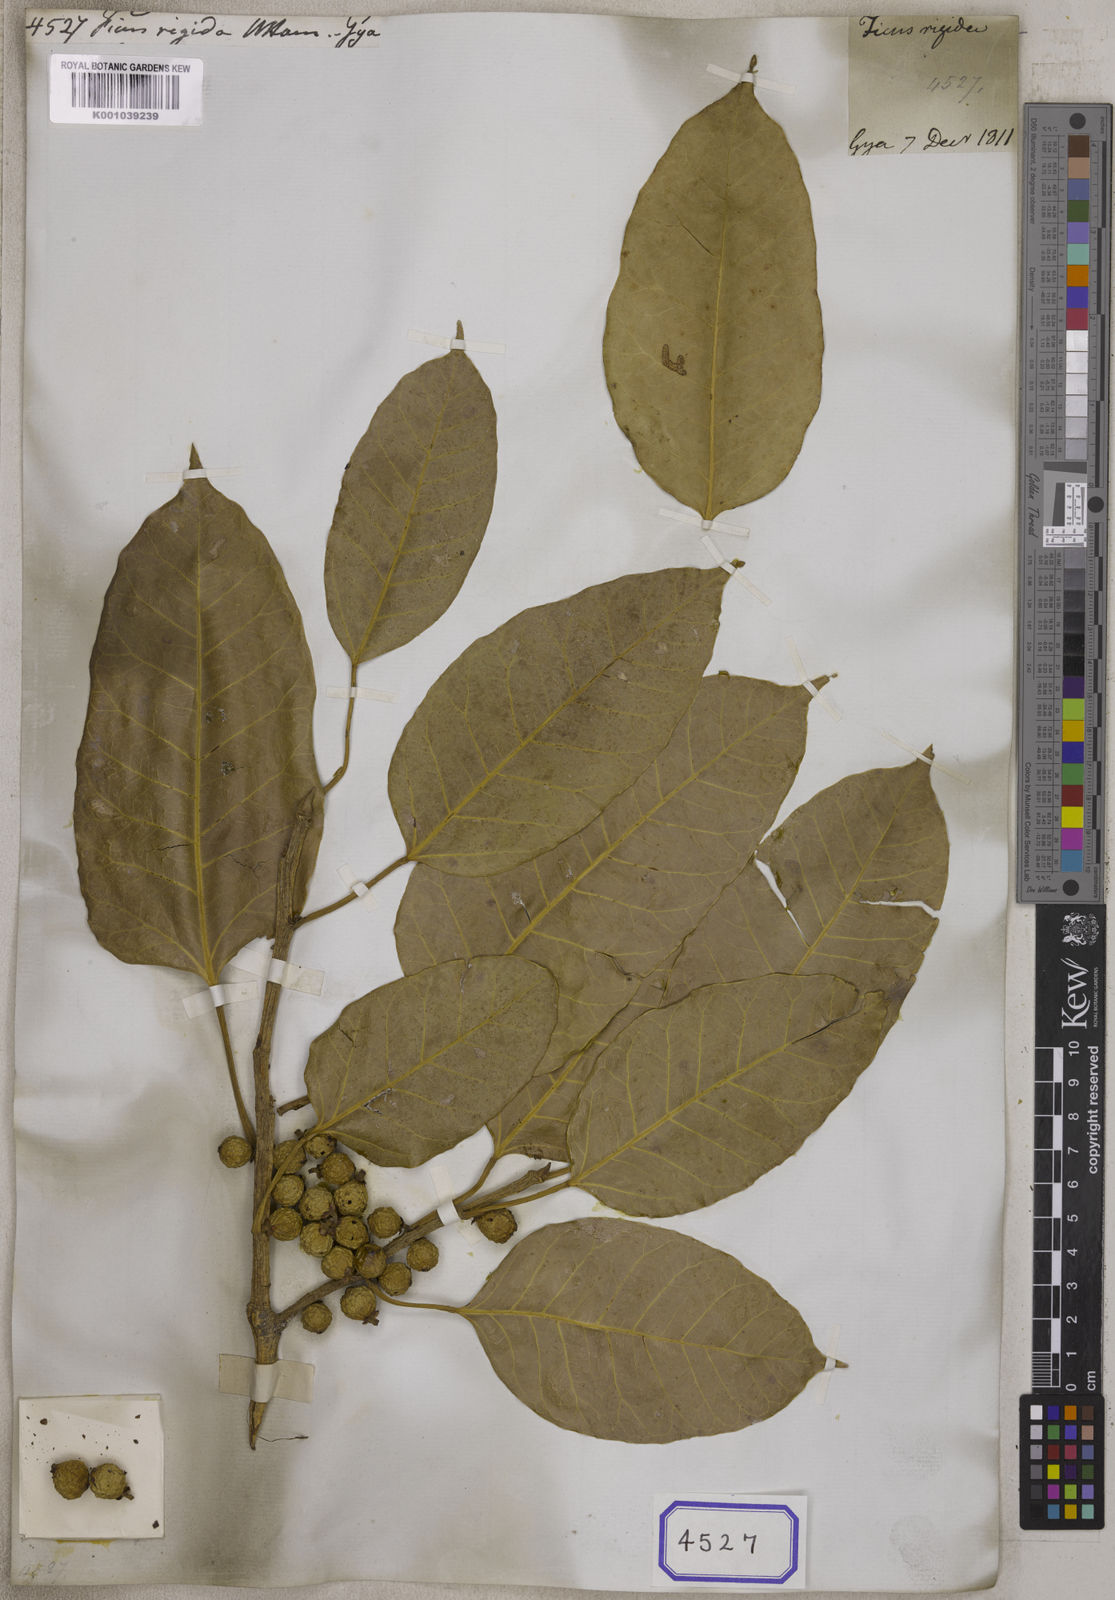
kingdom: Plantae
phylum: Tracheophyta
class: Magnoliopsida
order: Rosales
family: Moraceae
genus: Ficus
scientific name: Ficus
